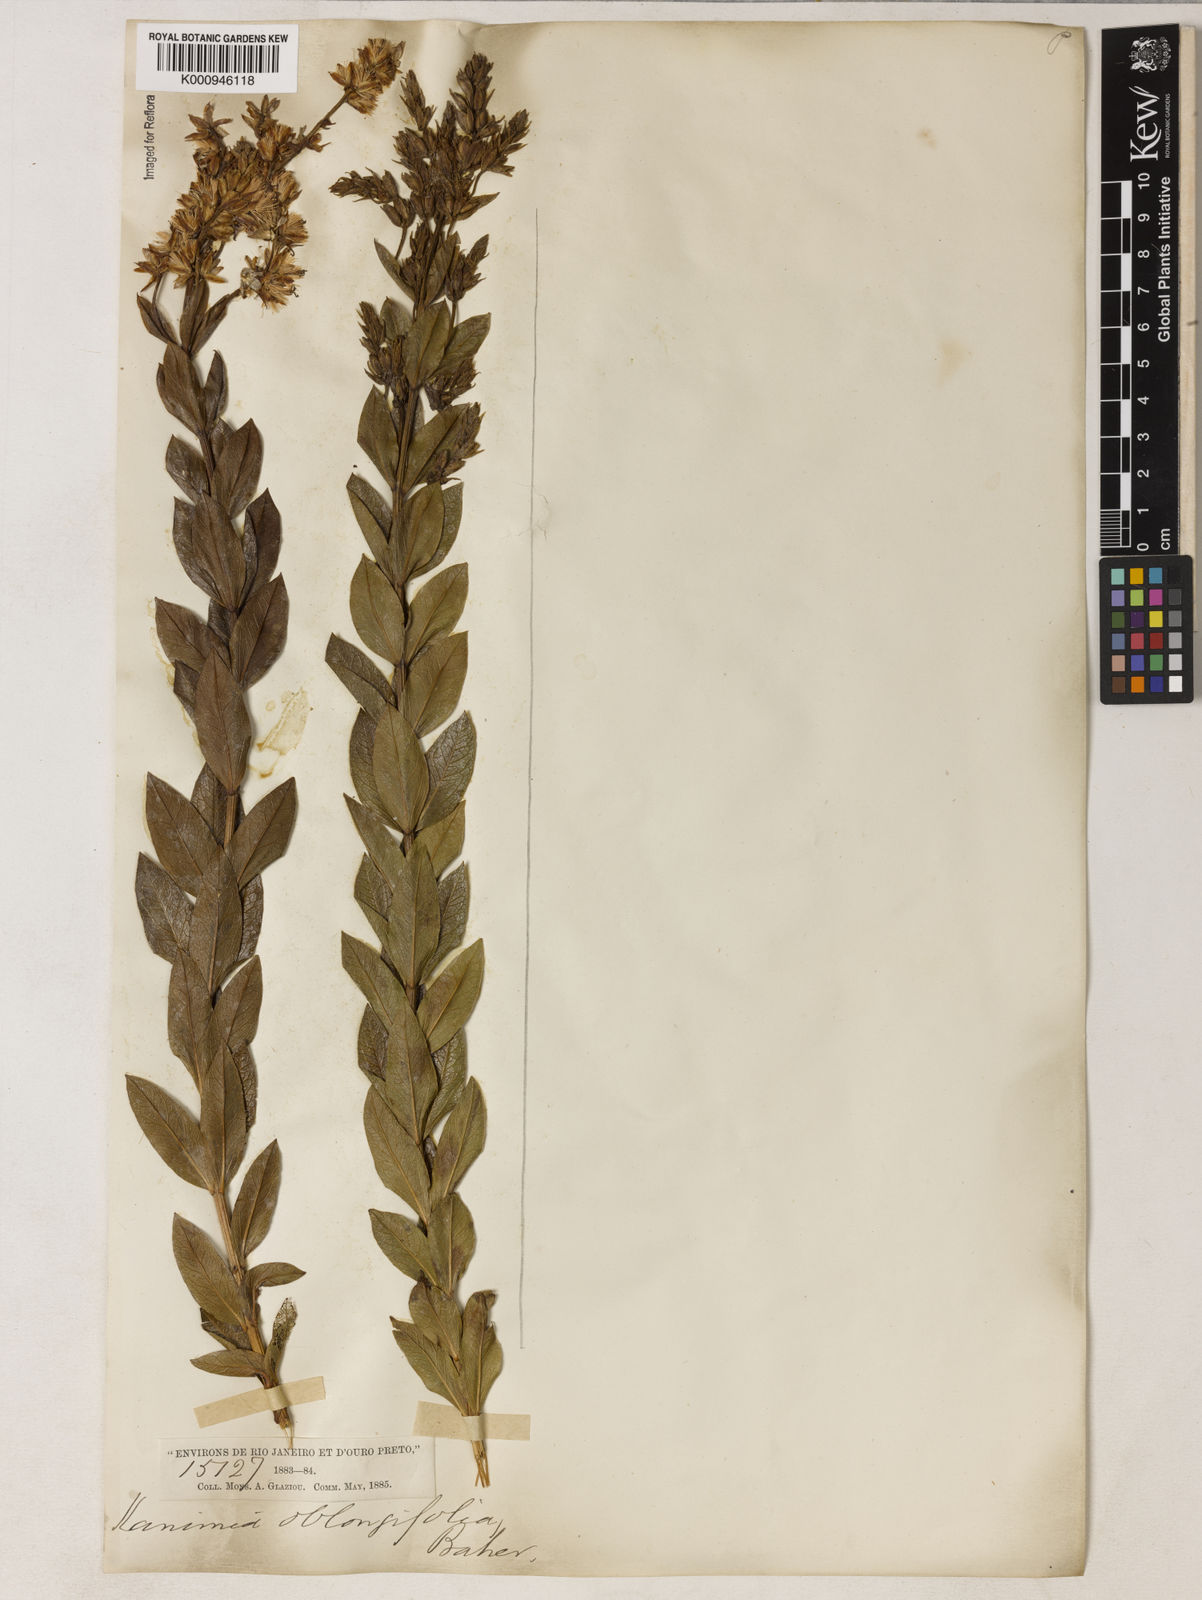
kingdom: Plantae
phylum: Tracheophyta
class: Magnoliopsida
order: Asterales
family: Asteraceae
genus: Mikania
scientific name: Mikania oblongifolia
